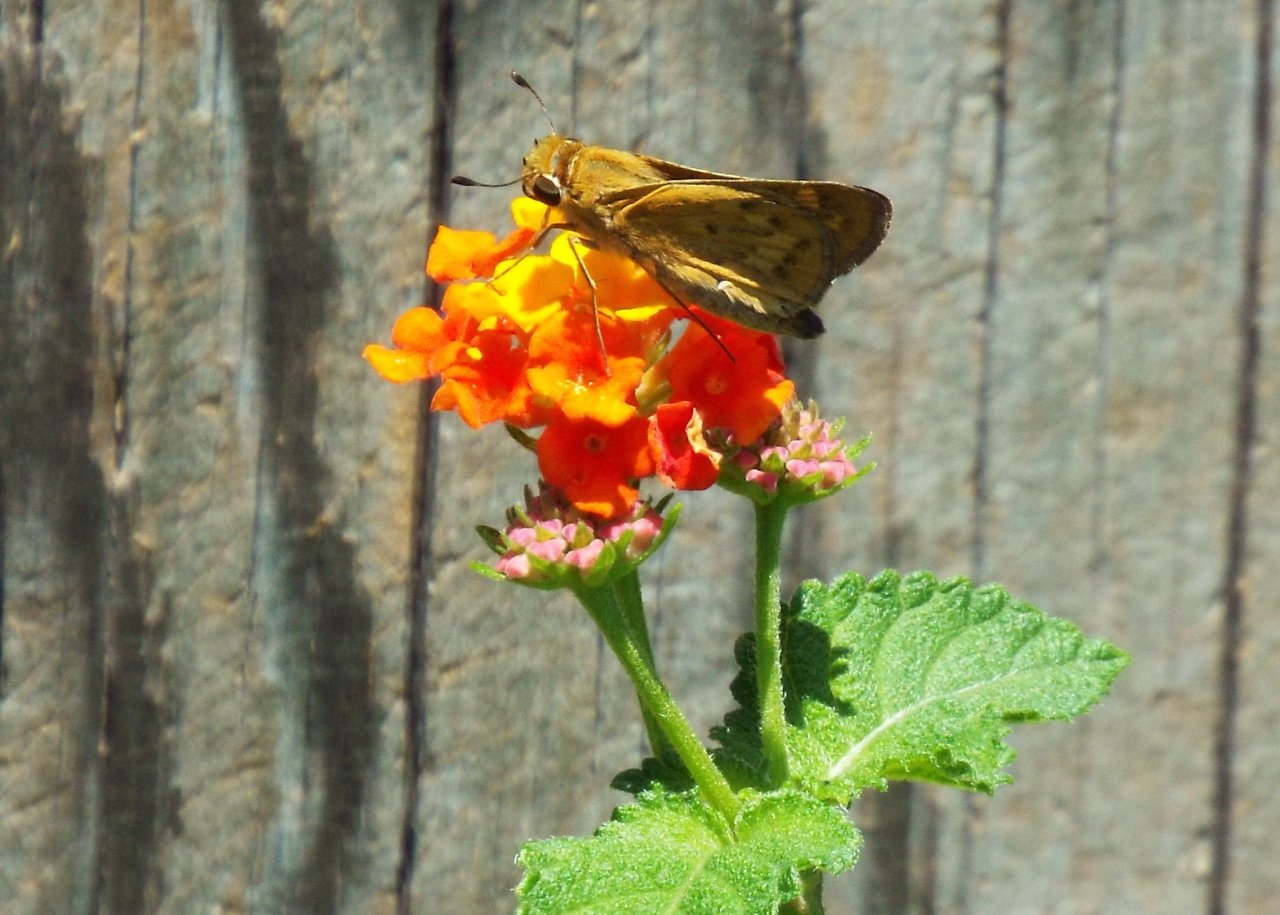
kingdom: Animalia
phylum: Arthropoda
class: Insecta
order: Lepidoptera
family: Hesperiidae
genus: Hylephila
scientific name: Hylephila phyleus
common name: Fiery Skipper
